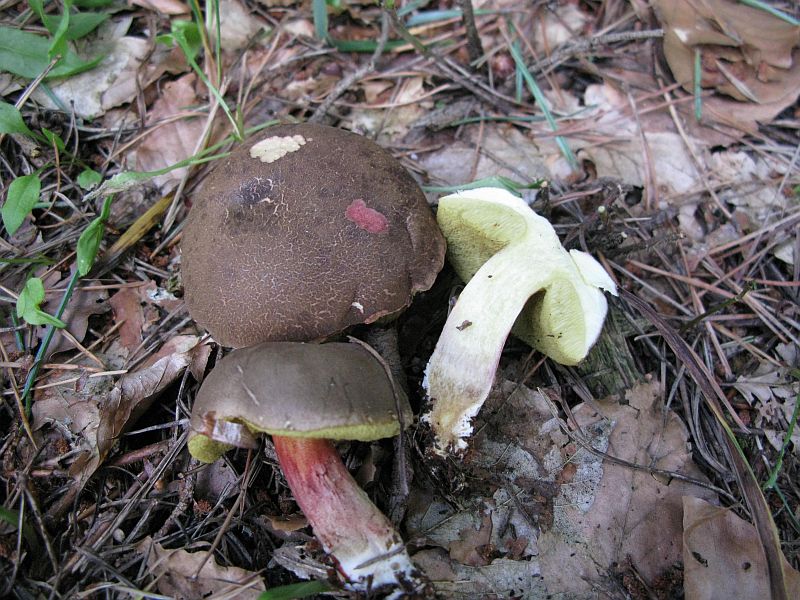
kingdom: Fungi
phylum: Basidiomycota
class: Agaricomycetes
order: Boletales
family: Boletaceae
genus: Xerocomellus
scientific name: Xerocomellus chrysenteron
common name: rødsprukken rørhat
